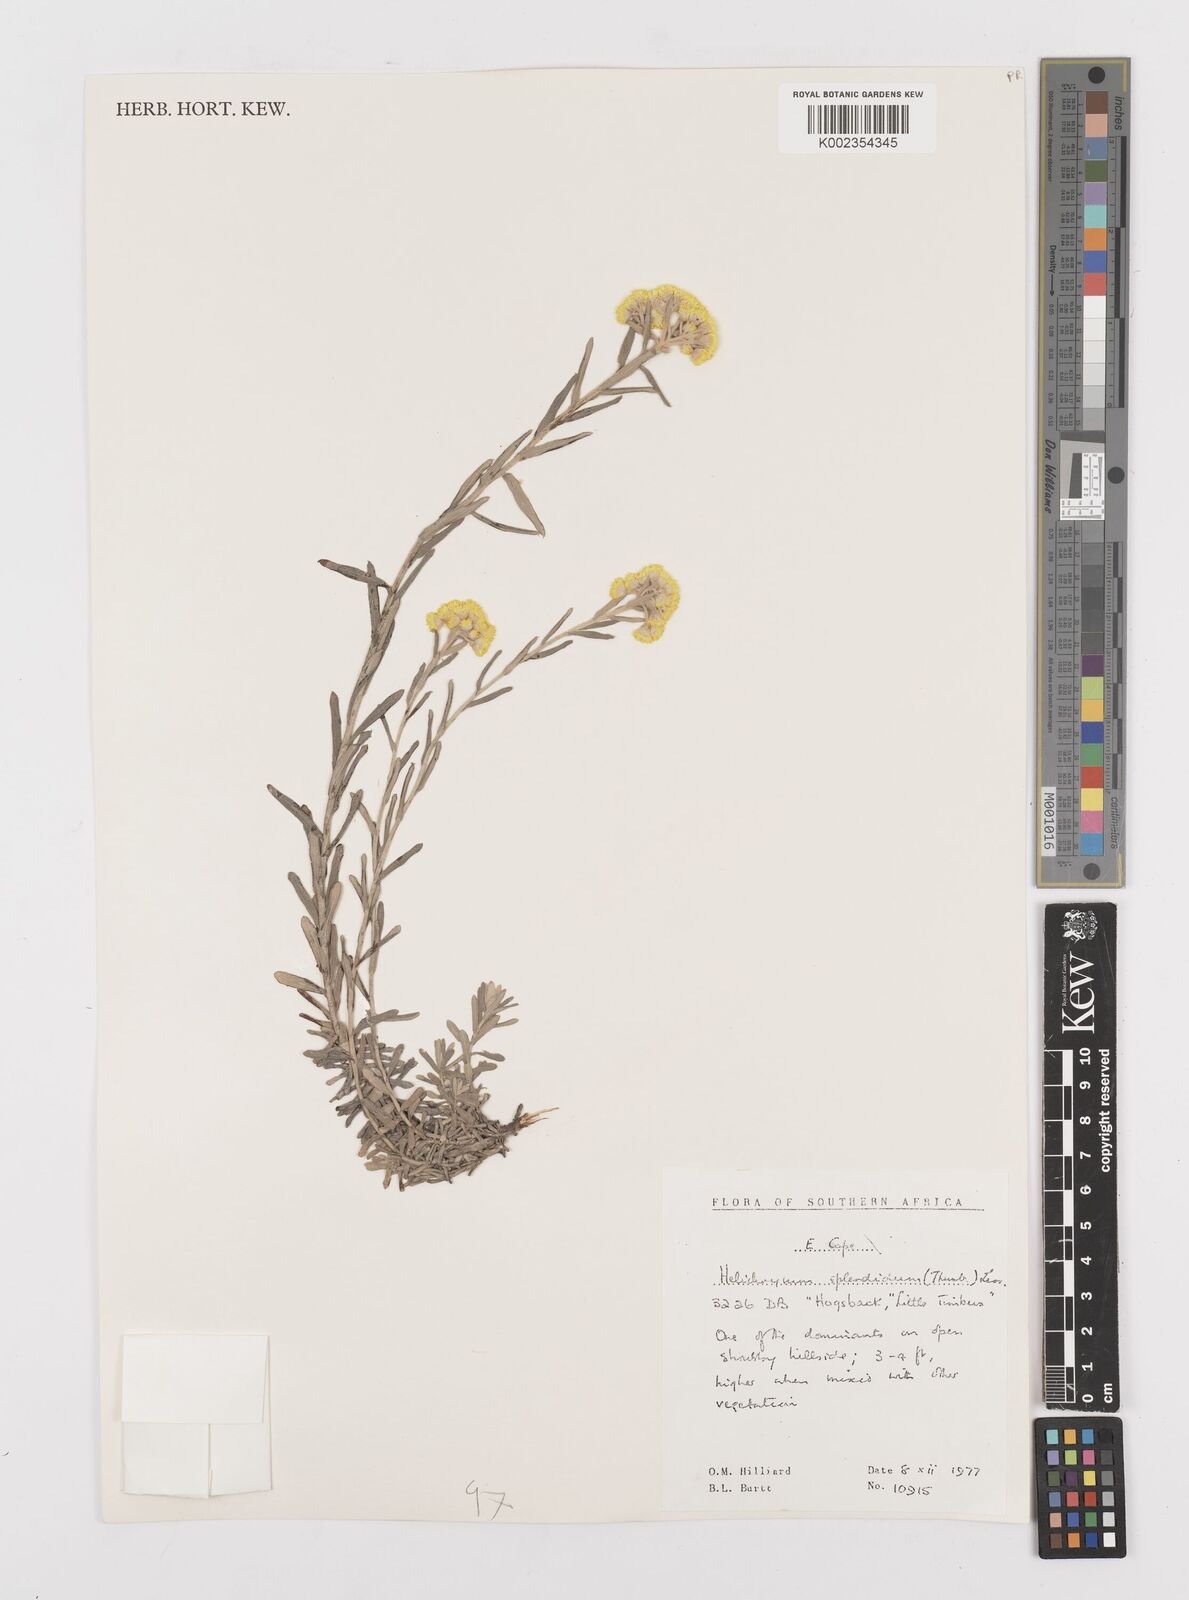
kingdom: Plantae
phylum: Tracheophyta
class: Magnoliopsida
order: Asterales
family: Asteraceae
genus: Helichrysum
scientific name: Helichrysum splendidum
